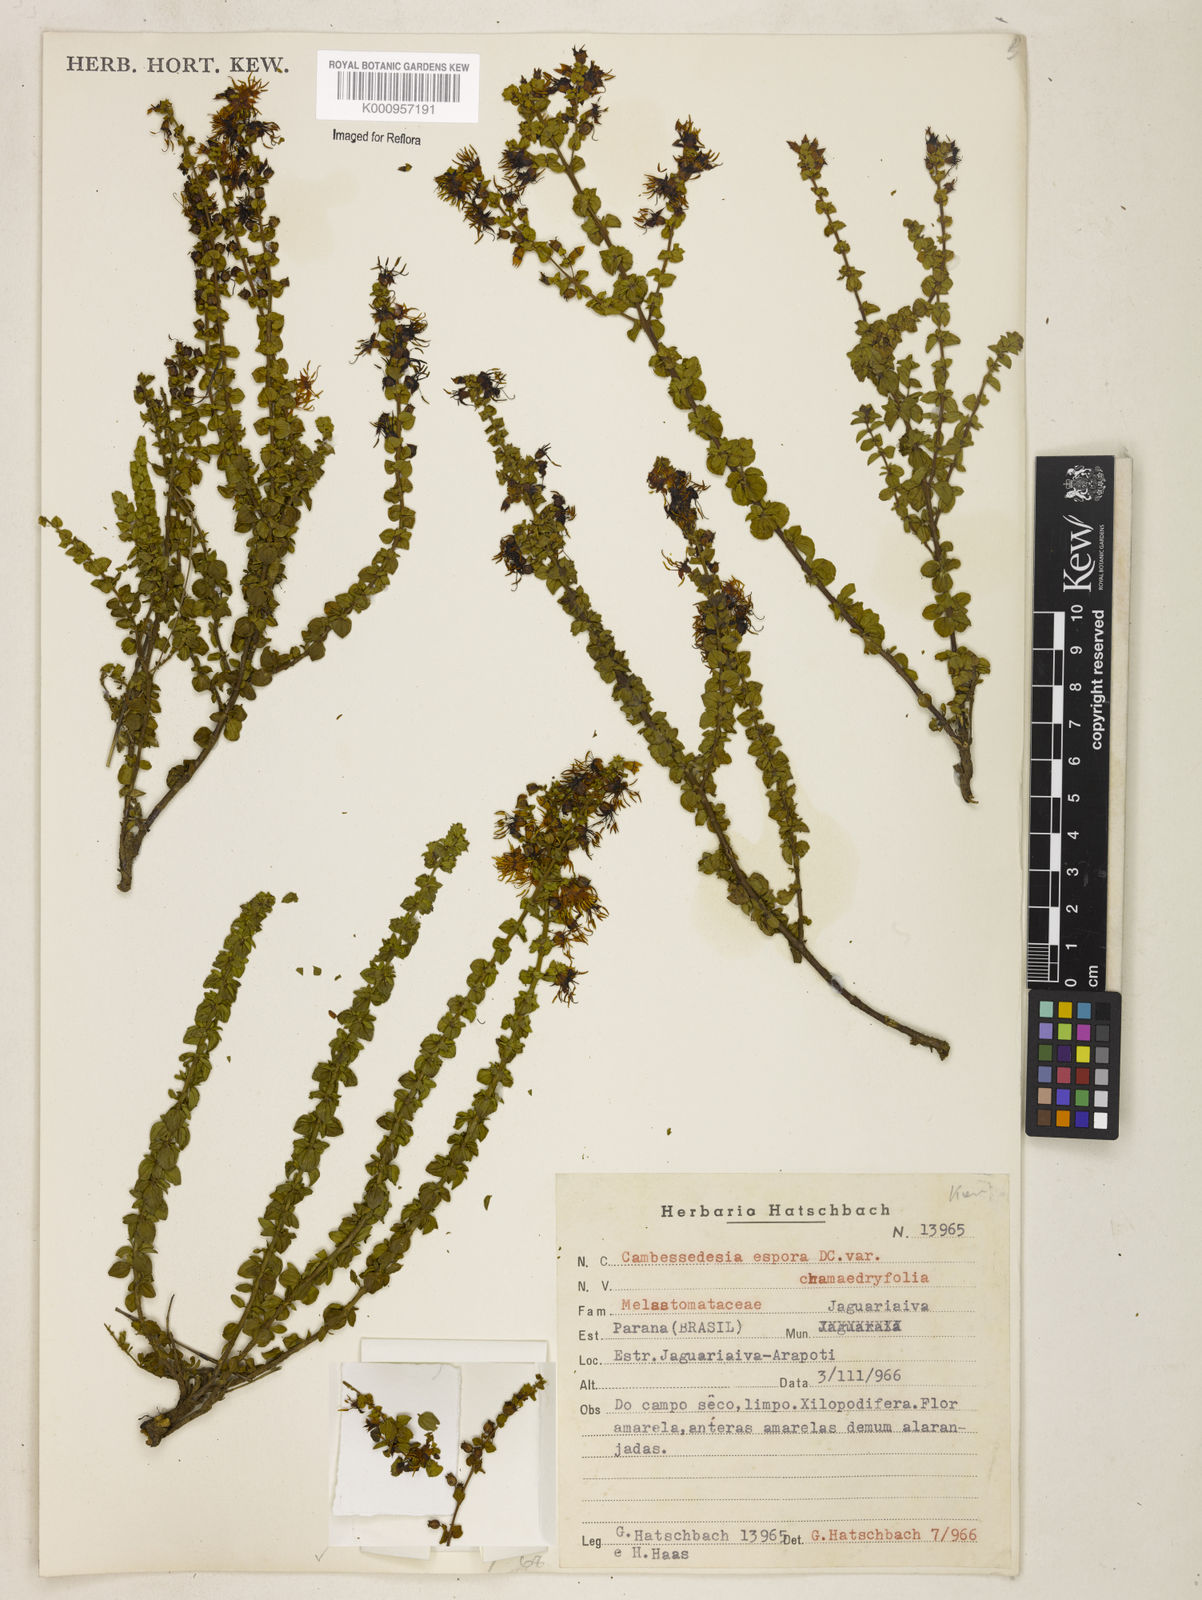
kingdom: Plantae
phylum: Tracheophyta
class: Magnoliopsida
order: Myrtales
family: Melastomataceae
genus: Cambessedesia
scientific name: Cambessedesia espora
